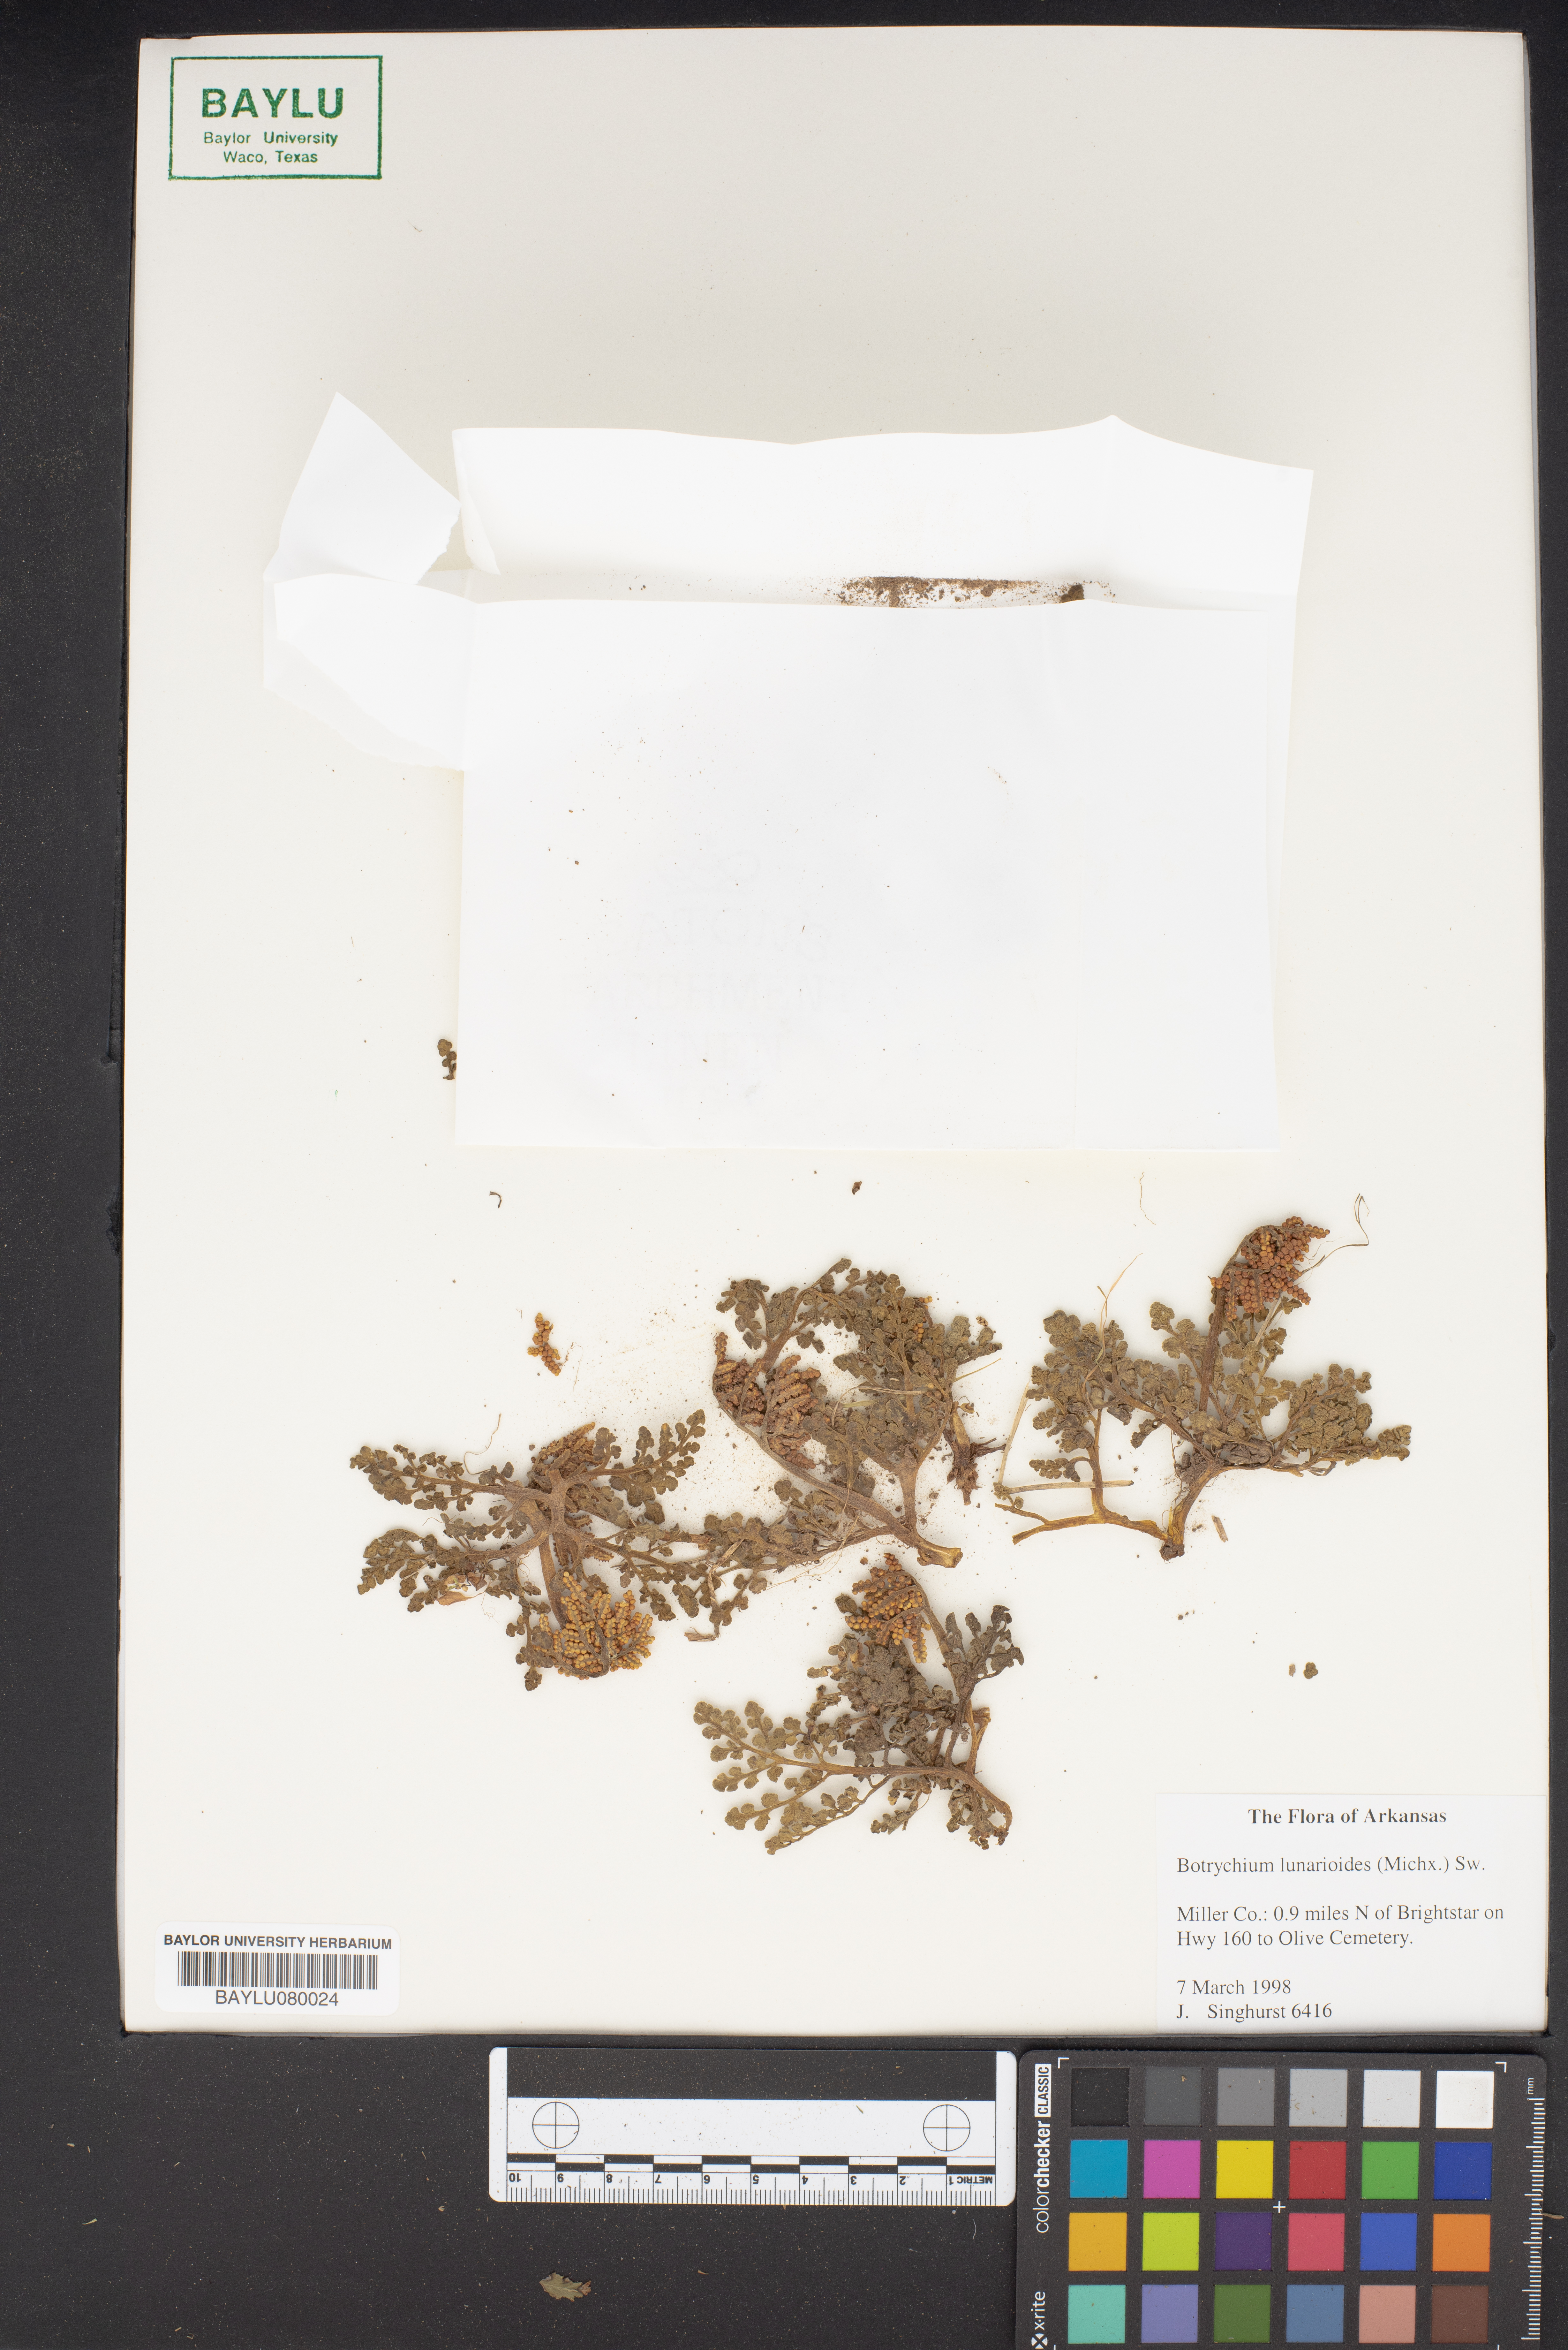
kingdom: Plantae
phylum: Tracheophyta
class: Polypodiopsida
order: Ophioglossales
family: Ophioglossaceae
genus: Sceptridium
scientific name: Sceptridium lunarioides
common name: Prostrate grapefern
